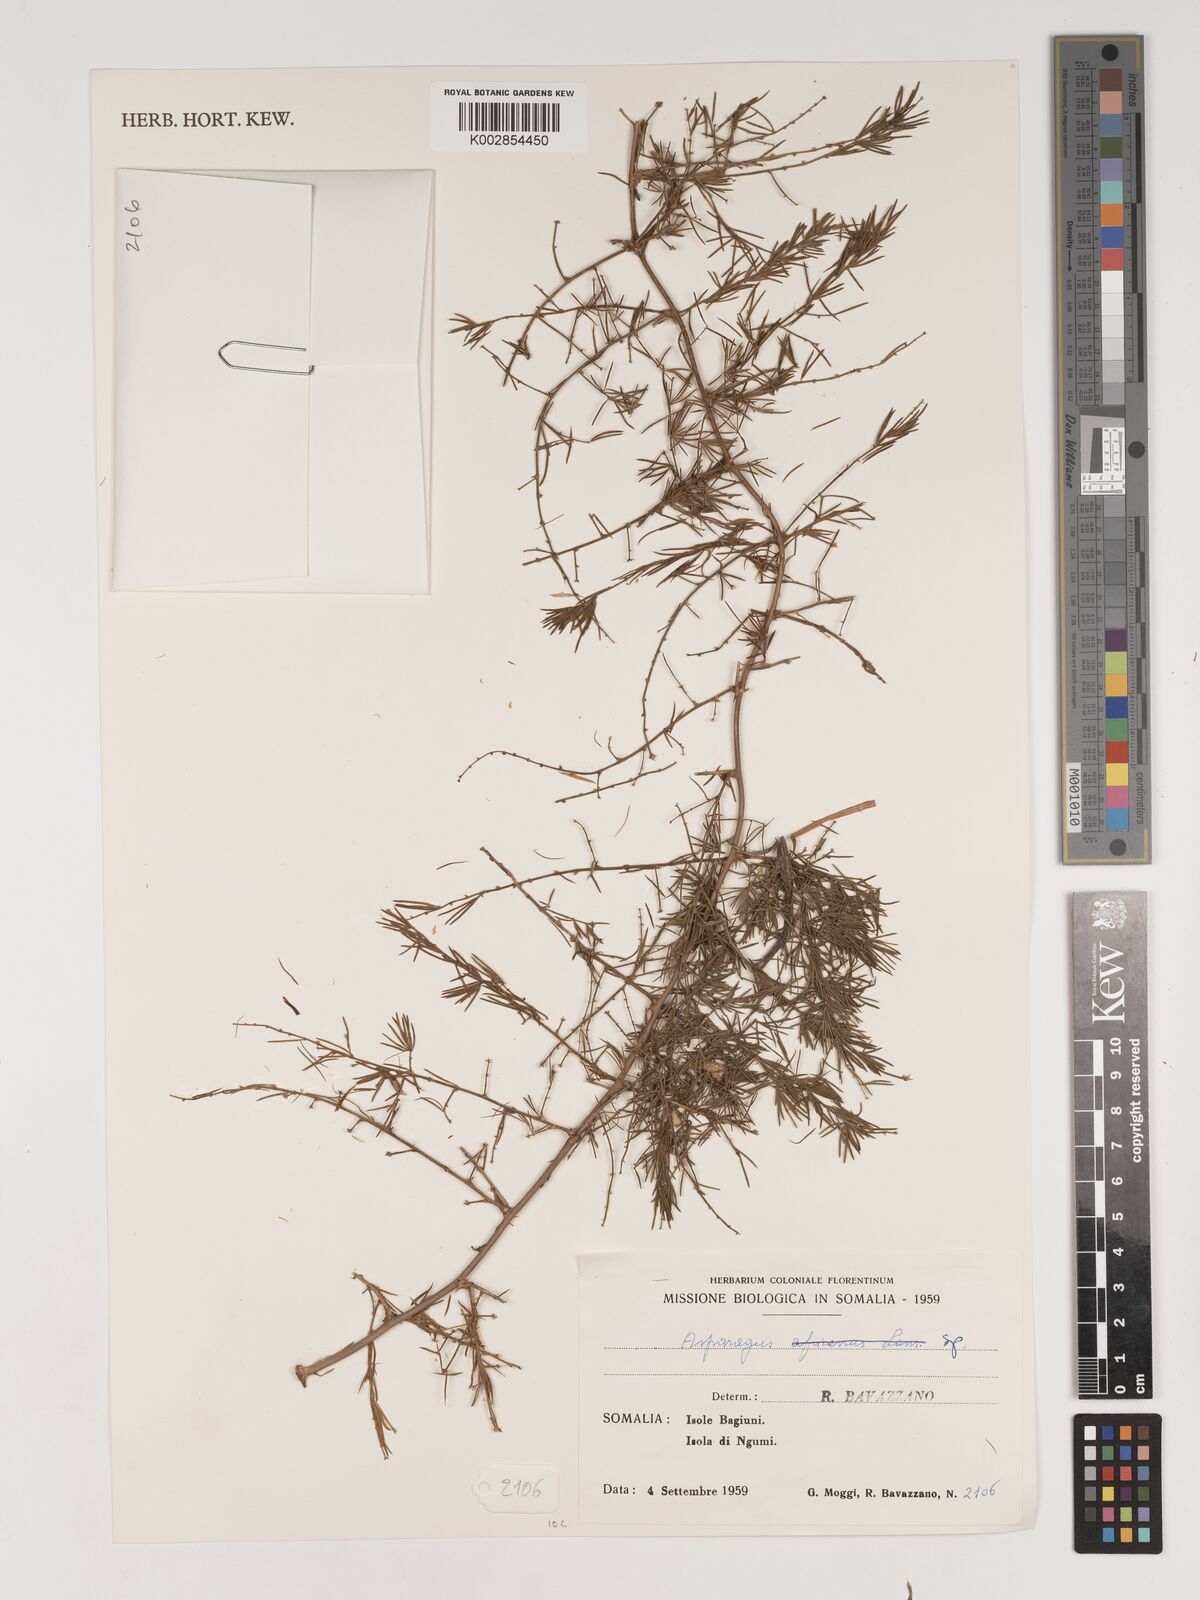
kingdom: Plantae
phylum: Tracheophyta
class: Liliopsida
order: Asparagales
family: Asparagaceae
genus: Asparagus
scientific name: Asparagus
